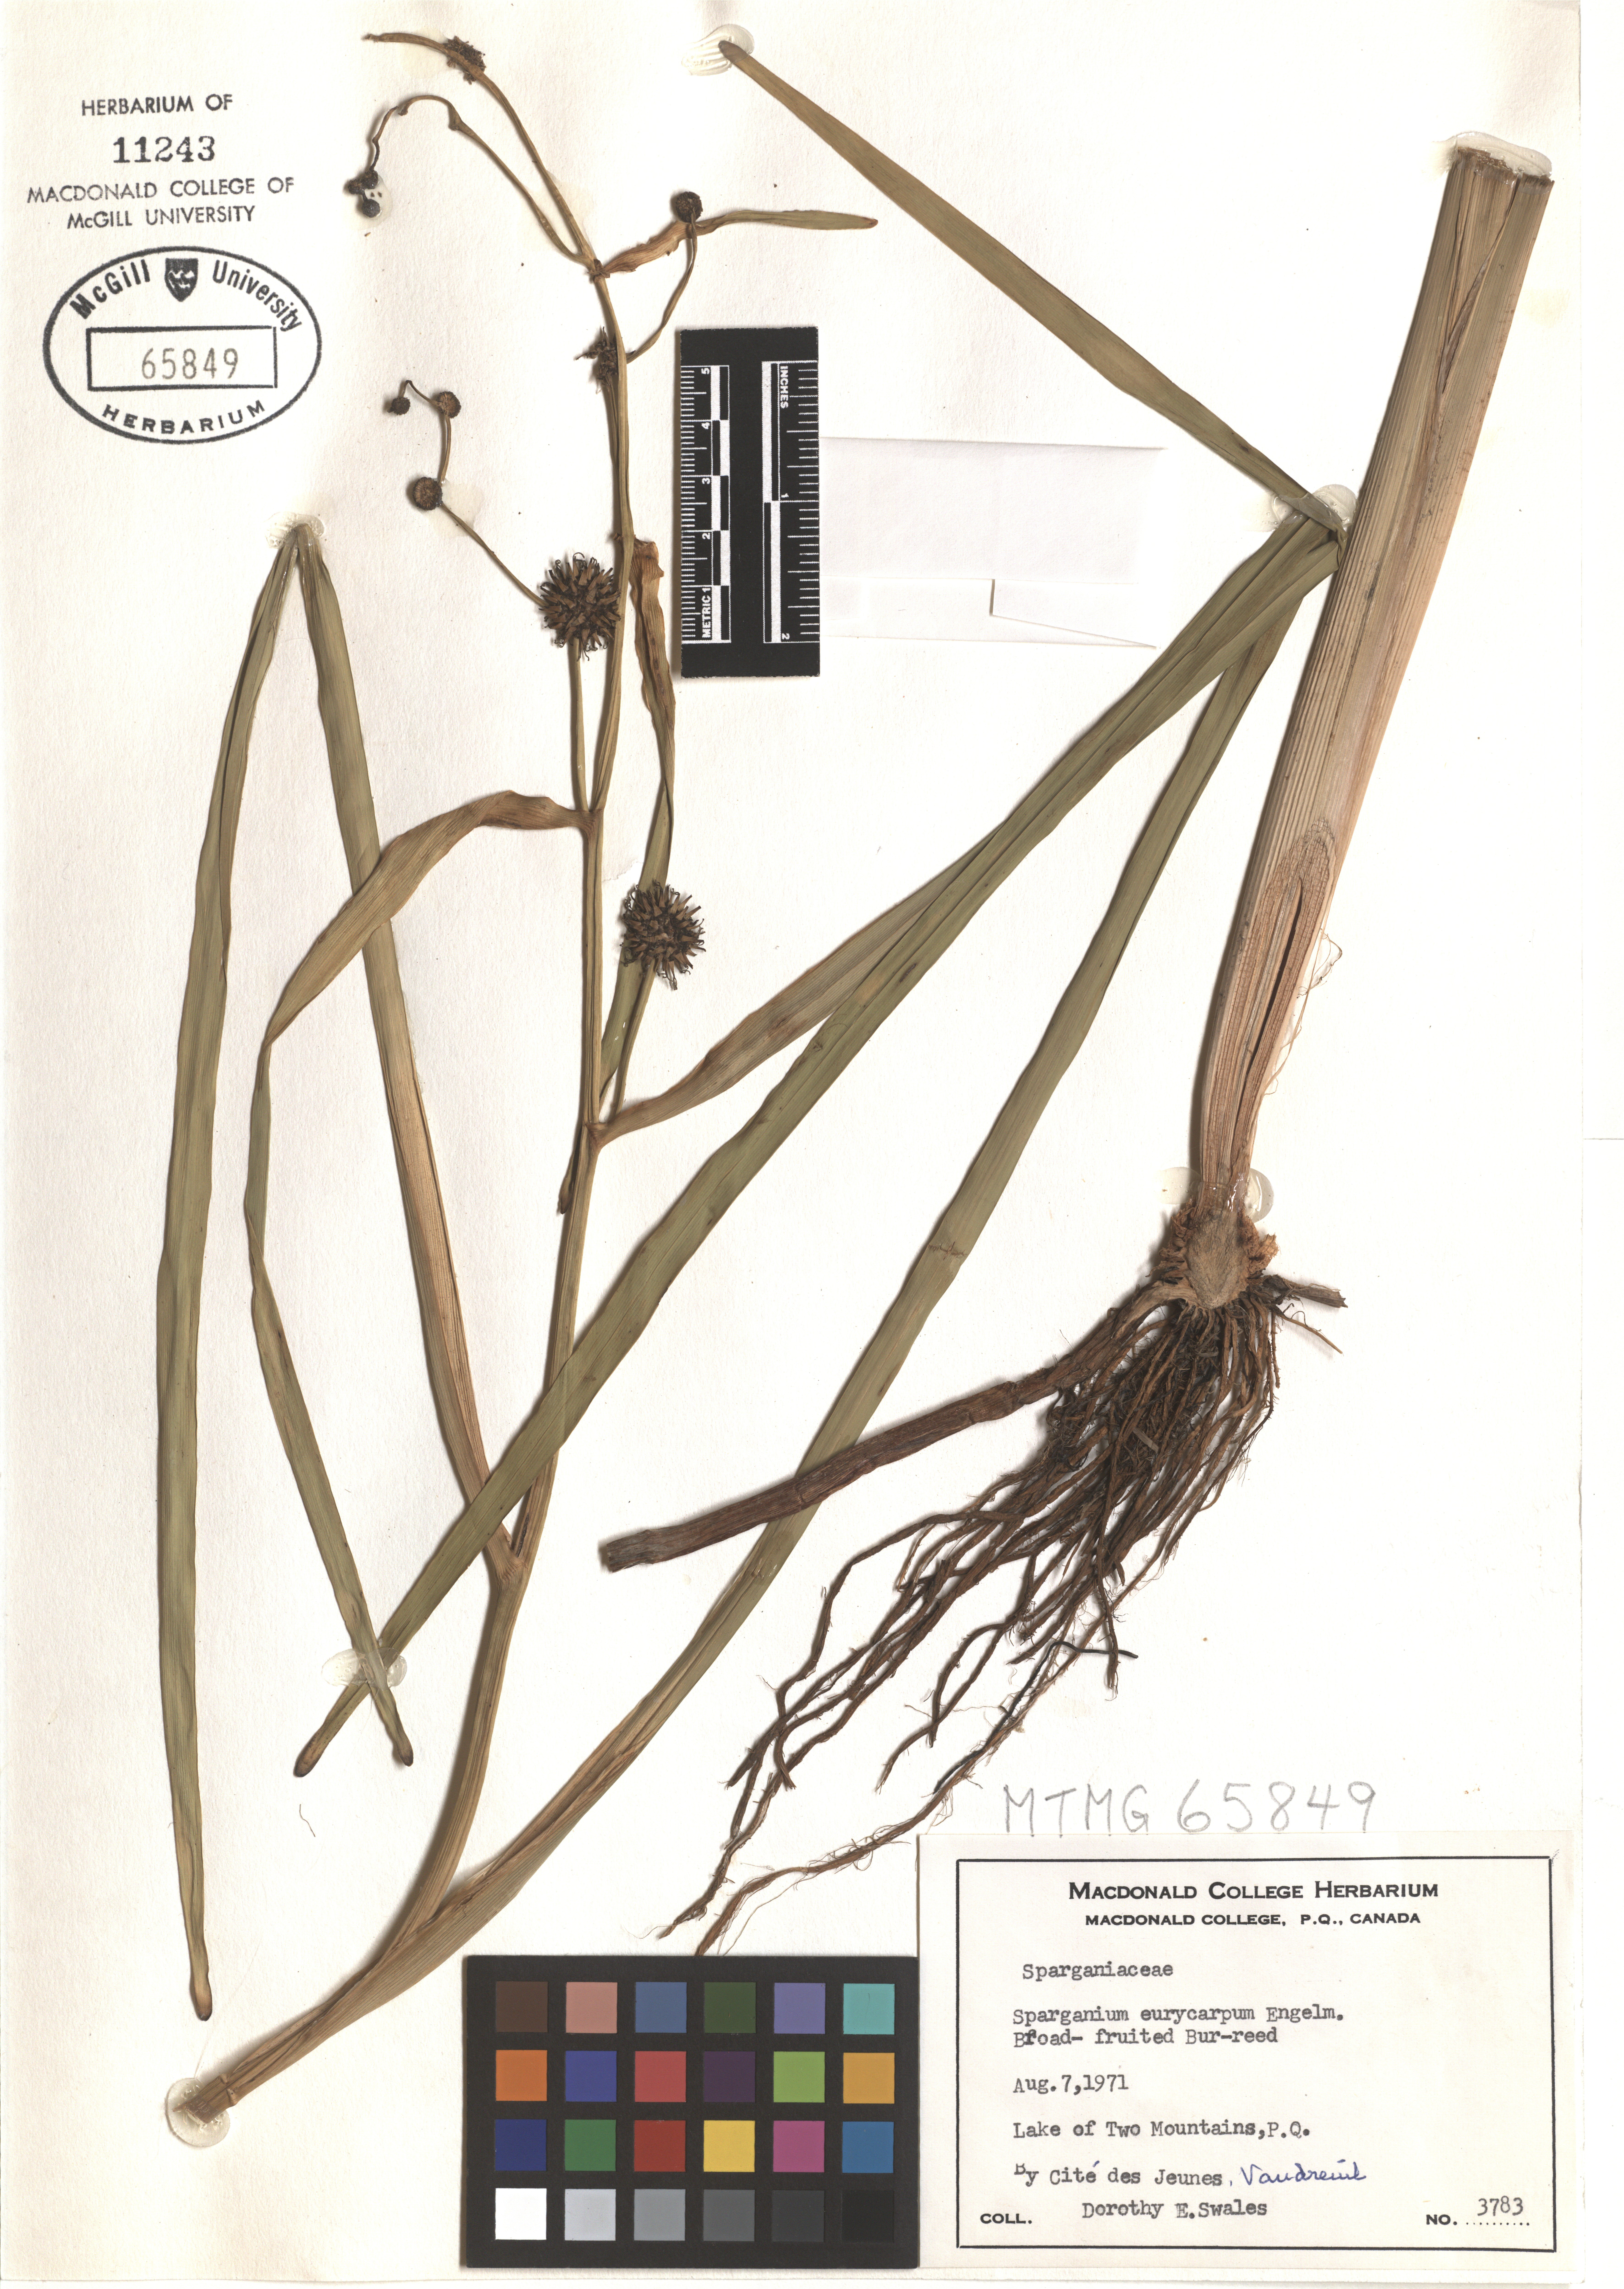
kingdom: Plantae
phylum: Tracheophyta
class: Liliopsida
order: Poales
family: Typhaceae
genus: Sparganium
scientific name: Sparganium eurycarpum
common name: Broad-fruited burreed
